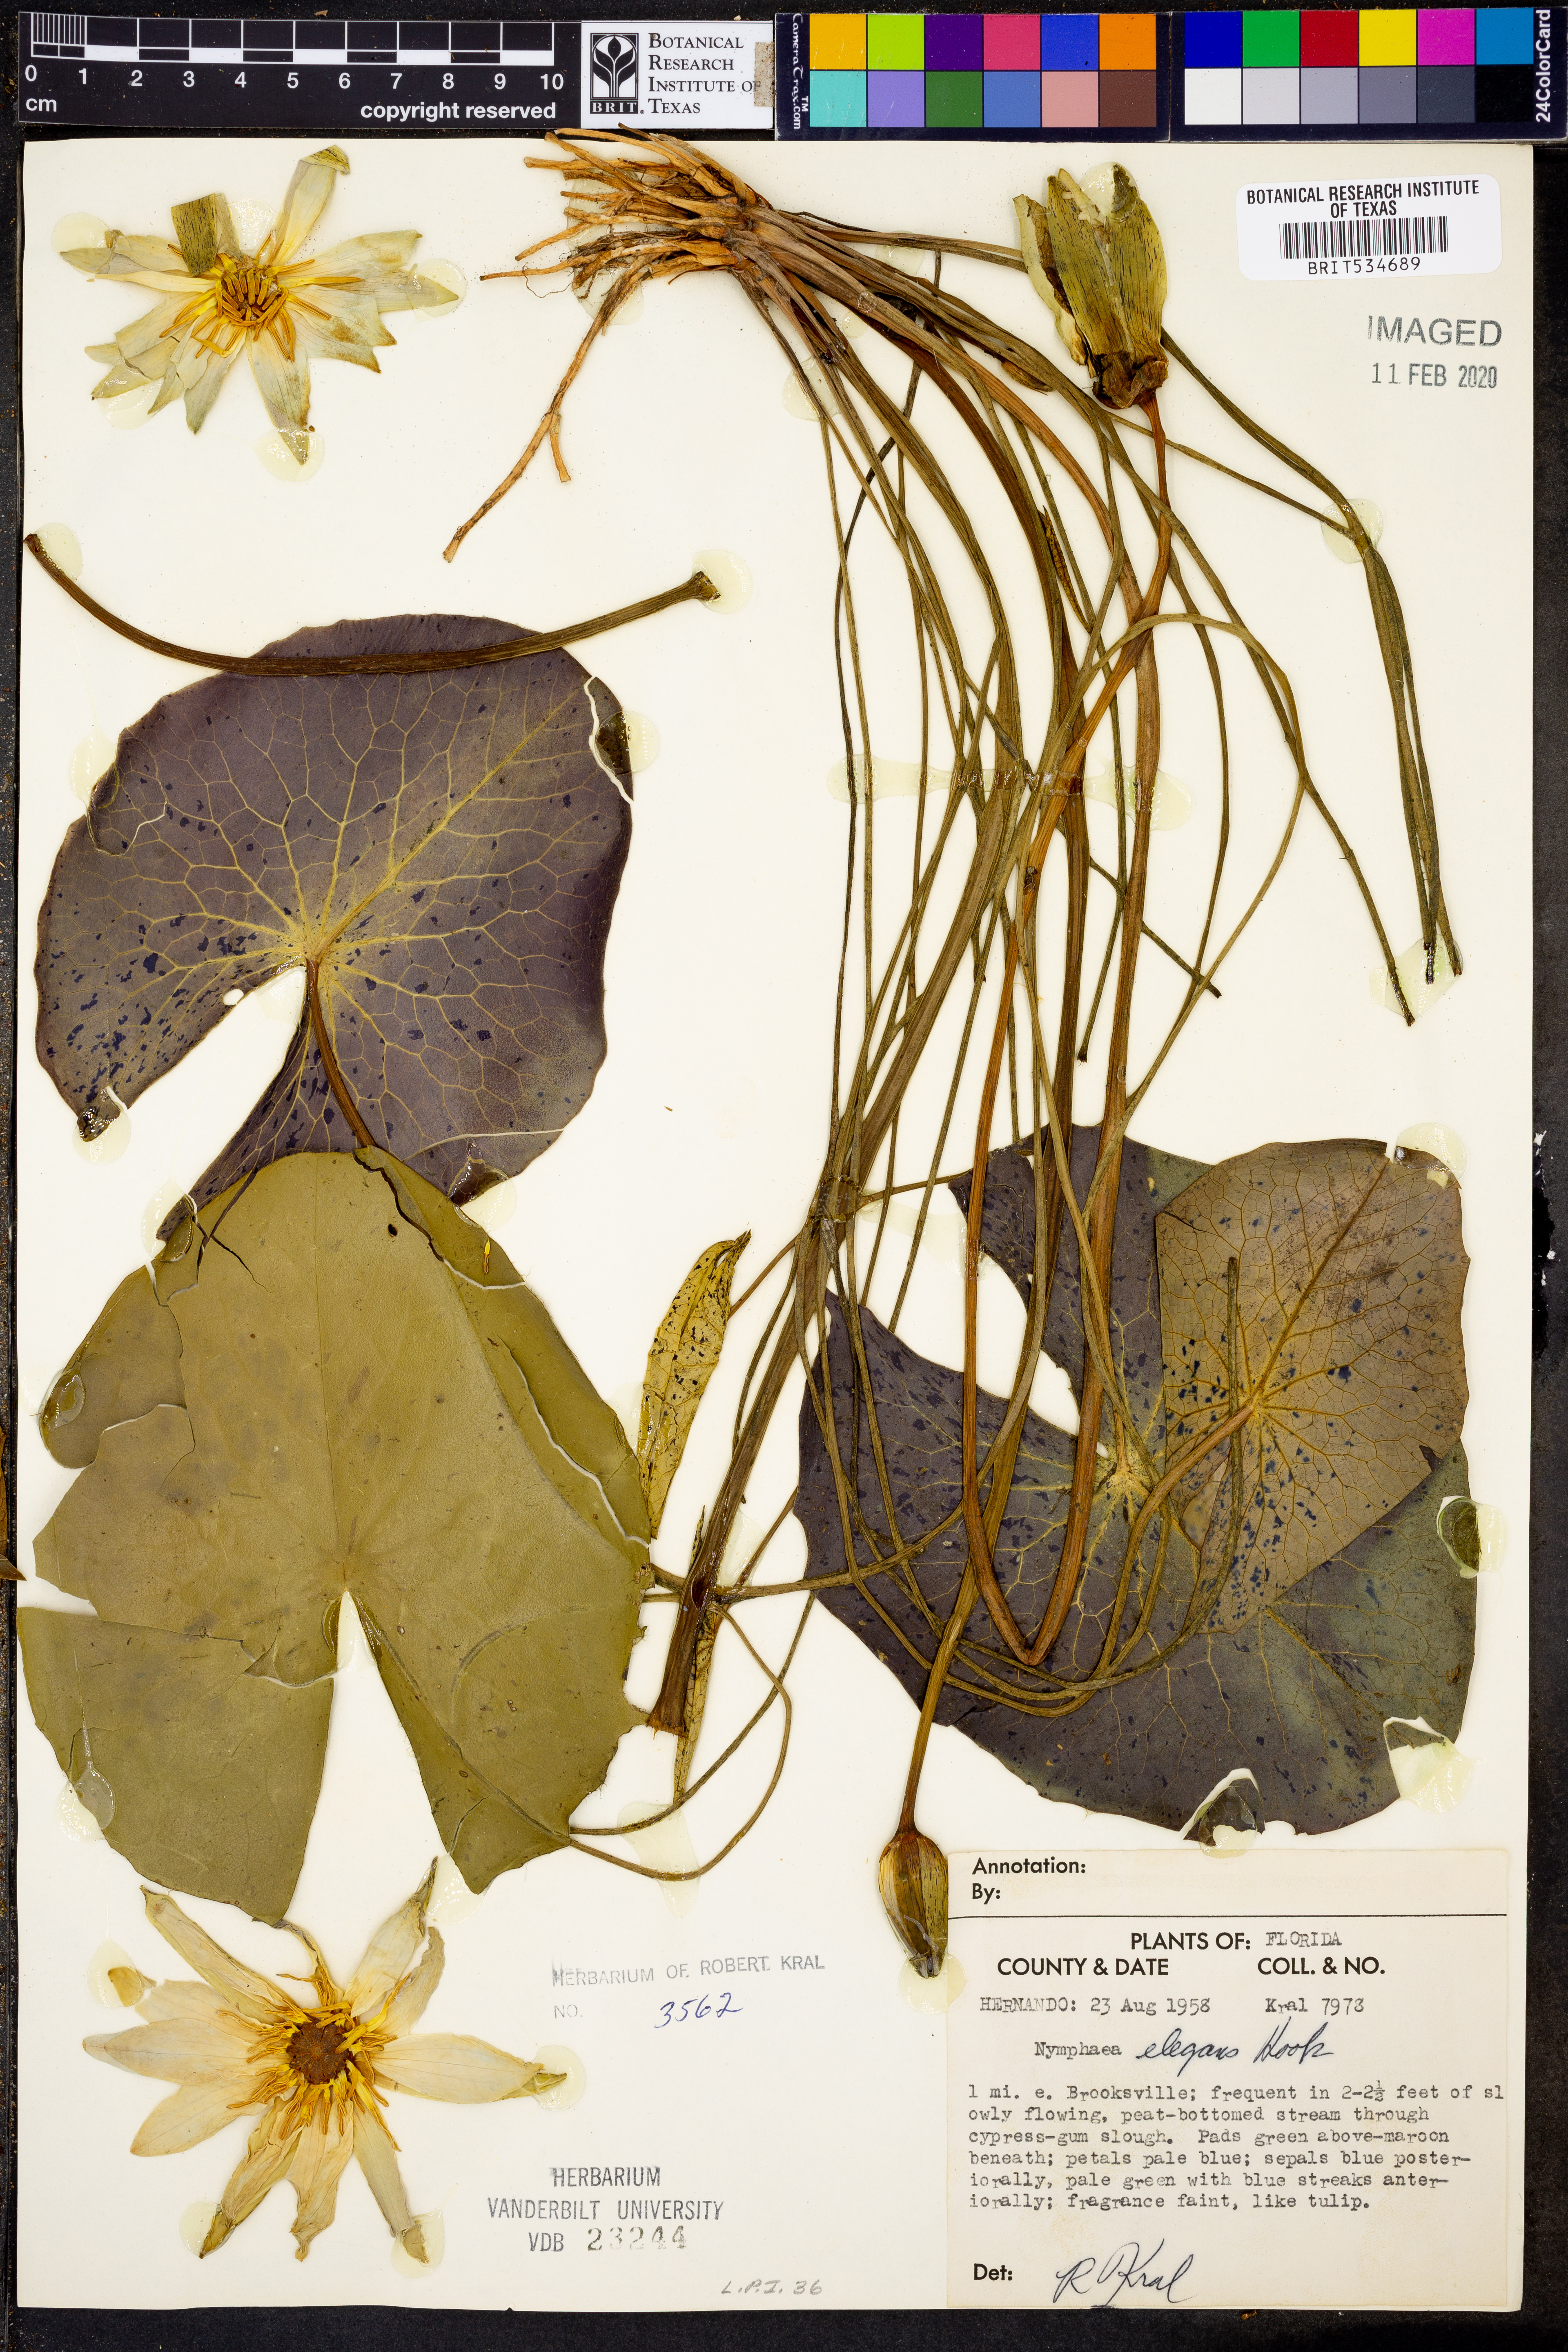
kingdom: Plantae
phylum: Tracheophyta
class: Magnoliopsida
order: Nymphaeales
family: Nymphaeaceae
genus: Nymphaea
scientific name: Nymphaea elegans
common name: Blue water-lily
